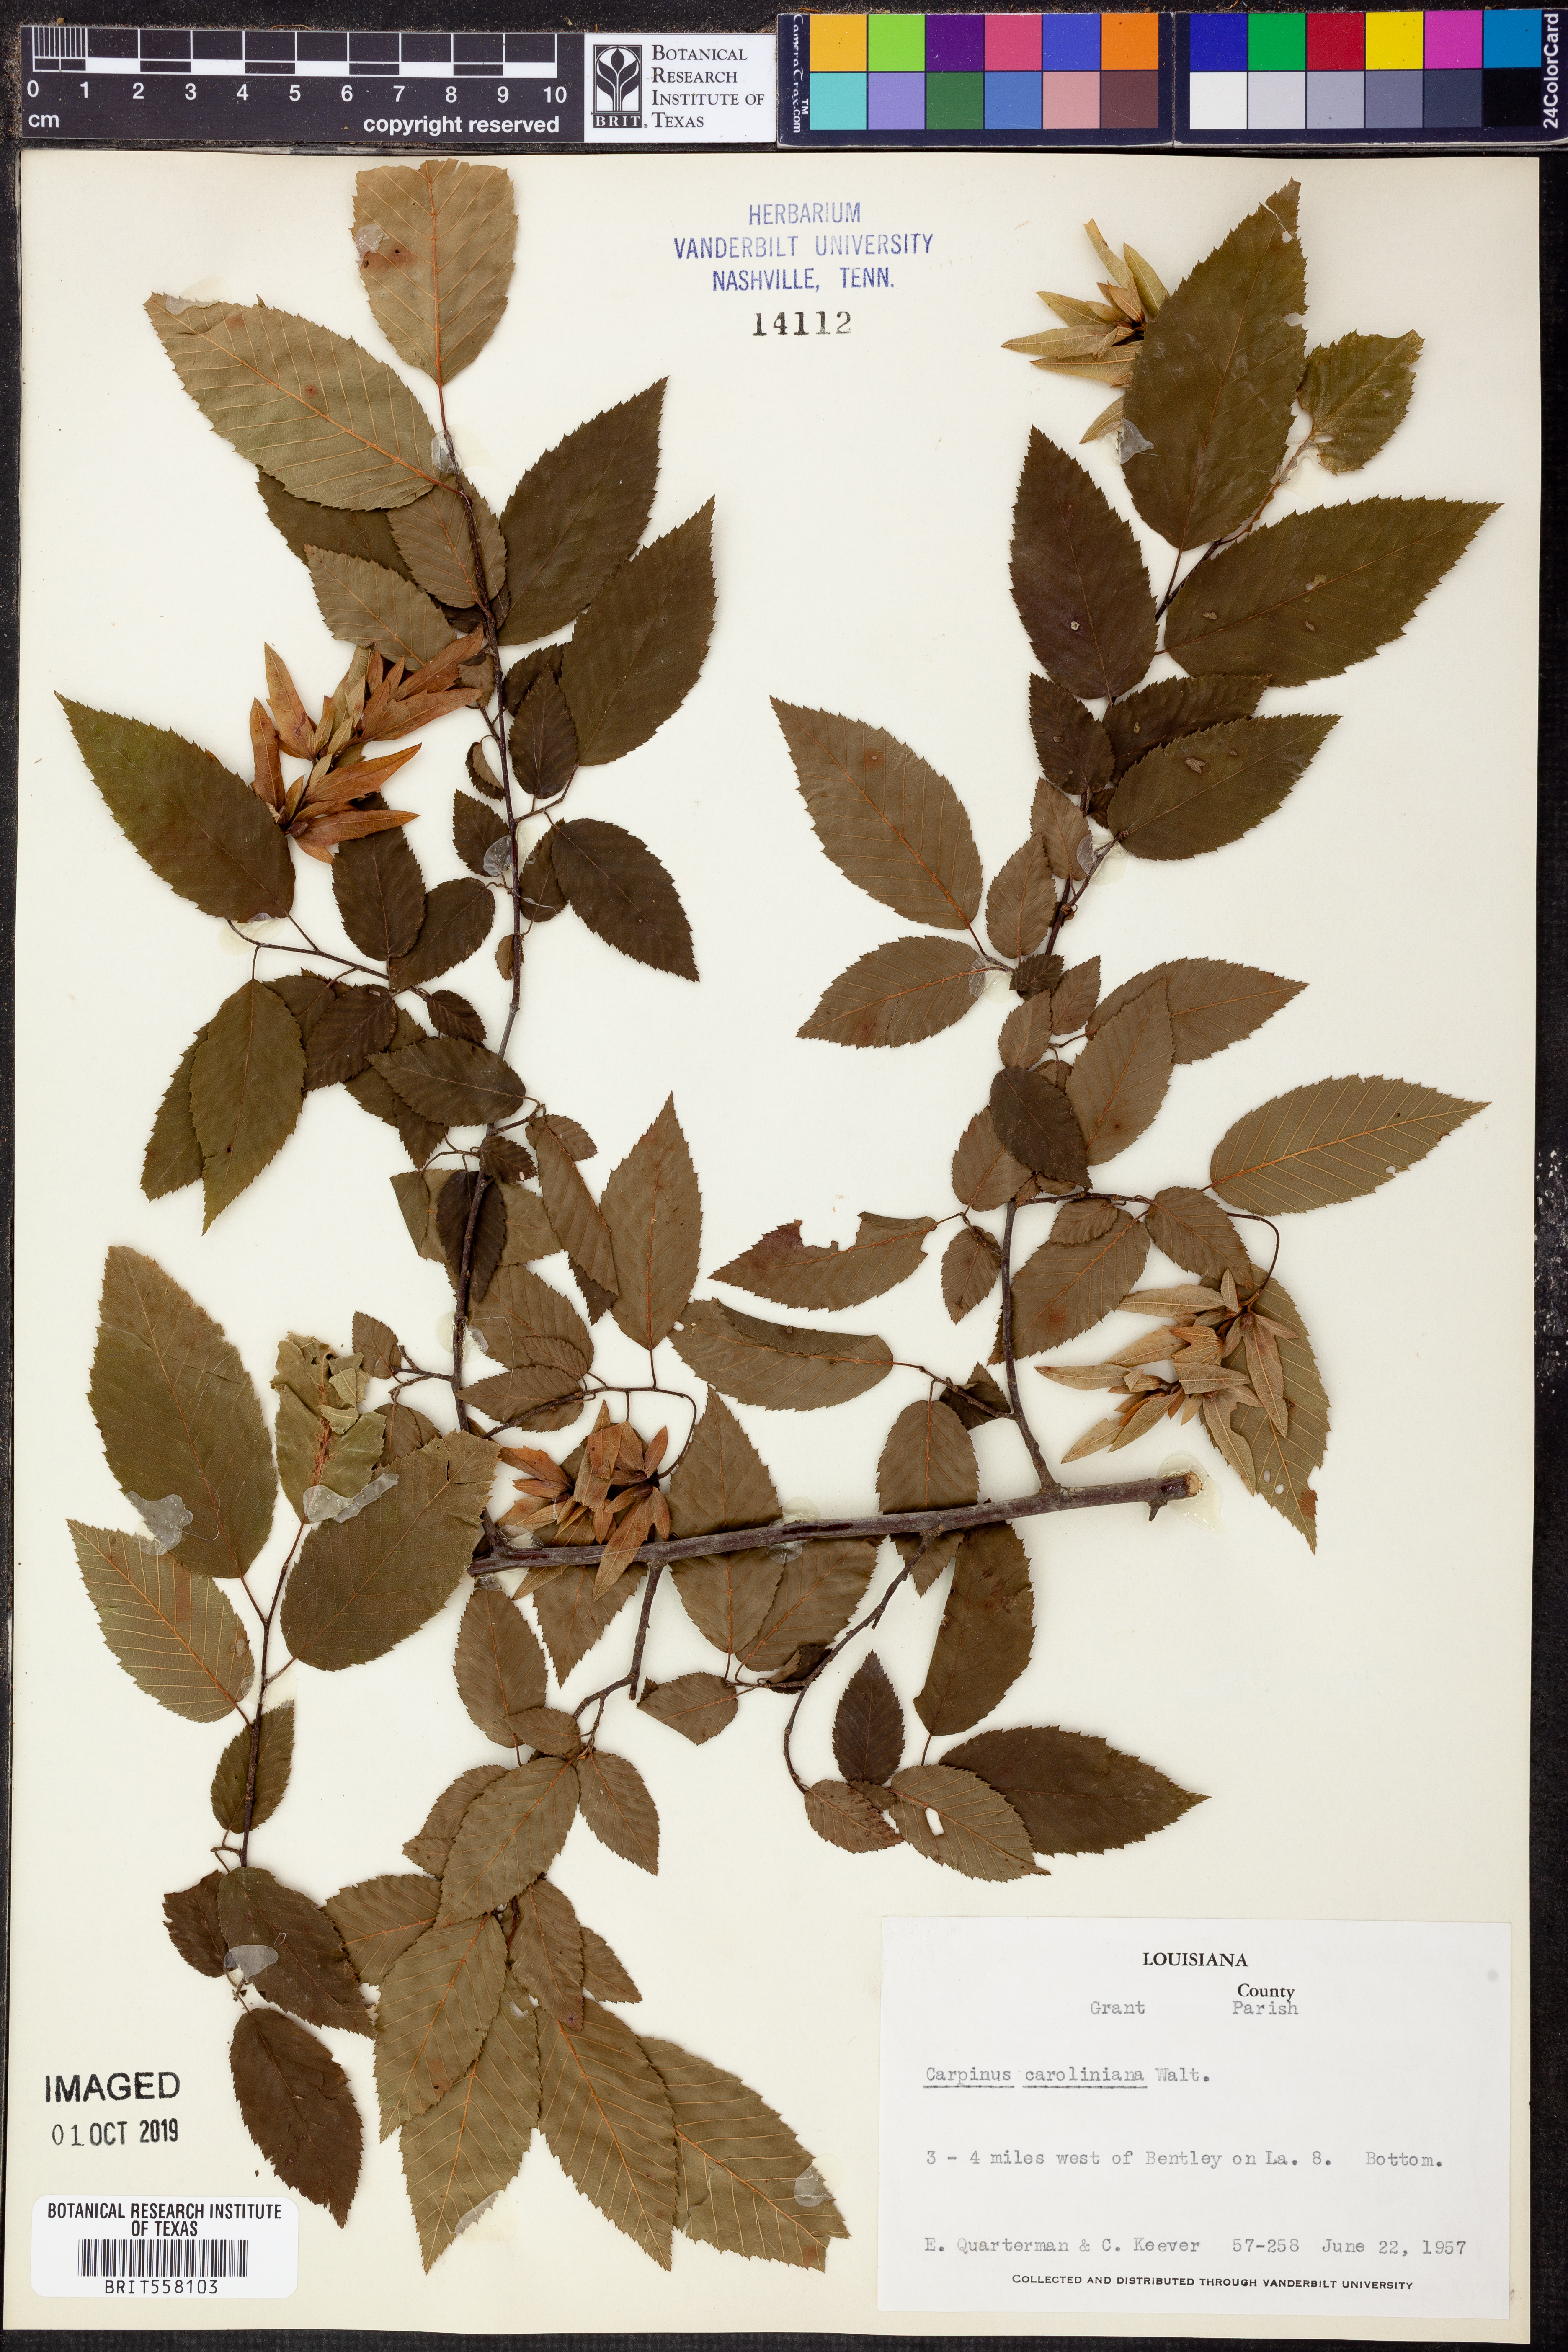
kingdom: Plantae
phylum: Tracheophyta
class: Magnoliopsida
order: Fagales
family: Betulaceae
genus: Carpinus
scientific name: Carpinus caroliniana
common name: American hornbeam
